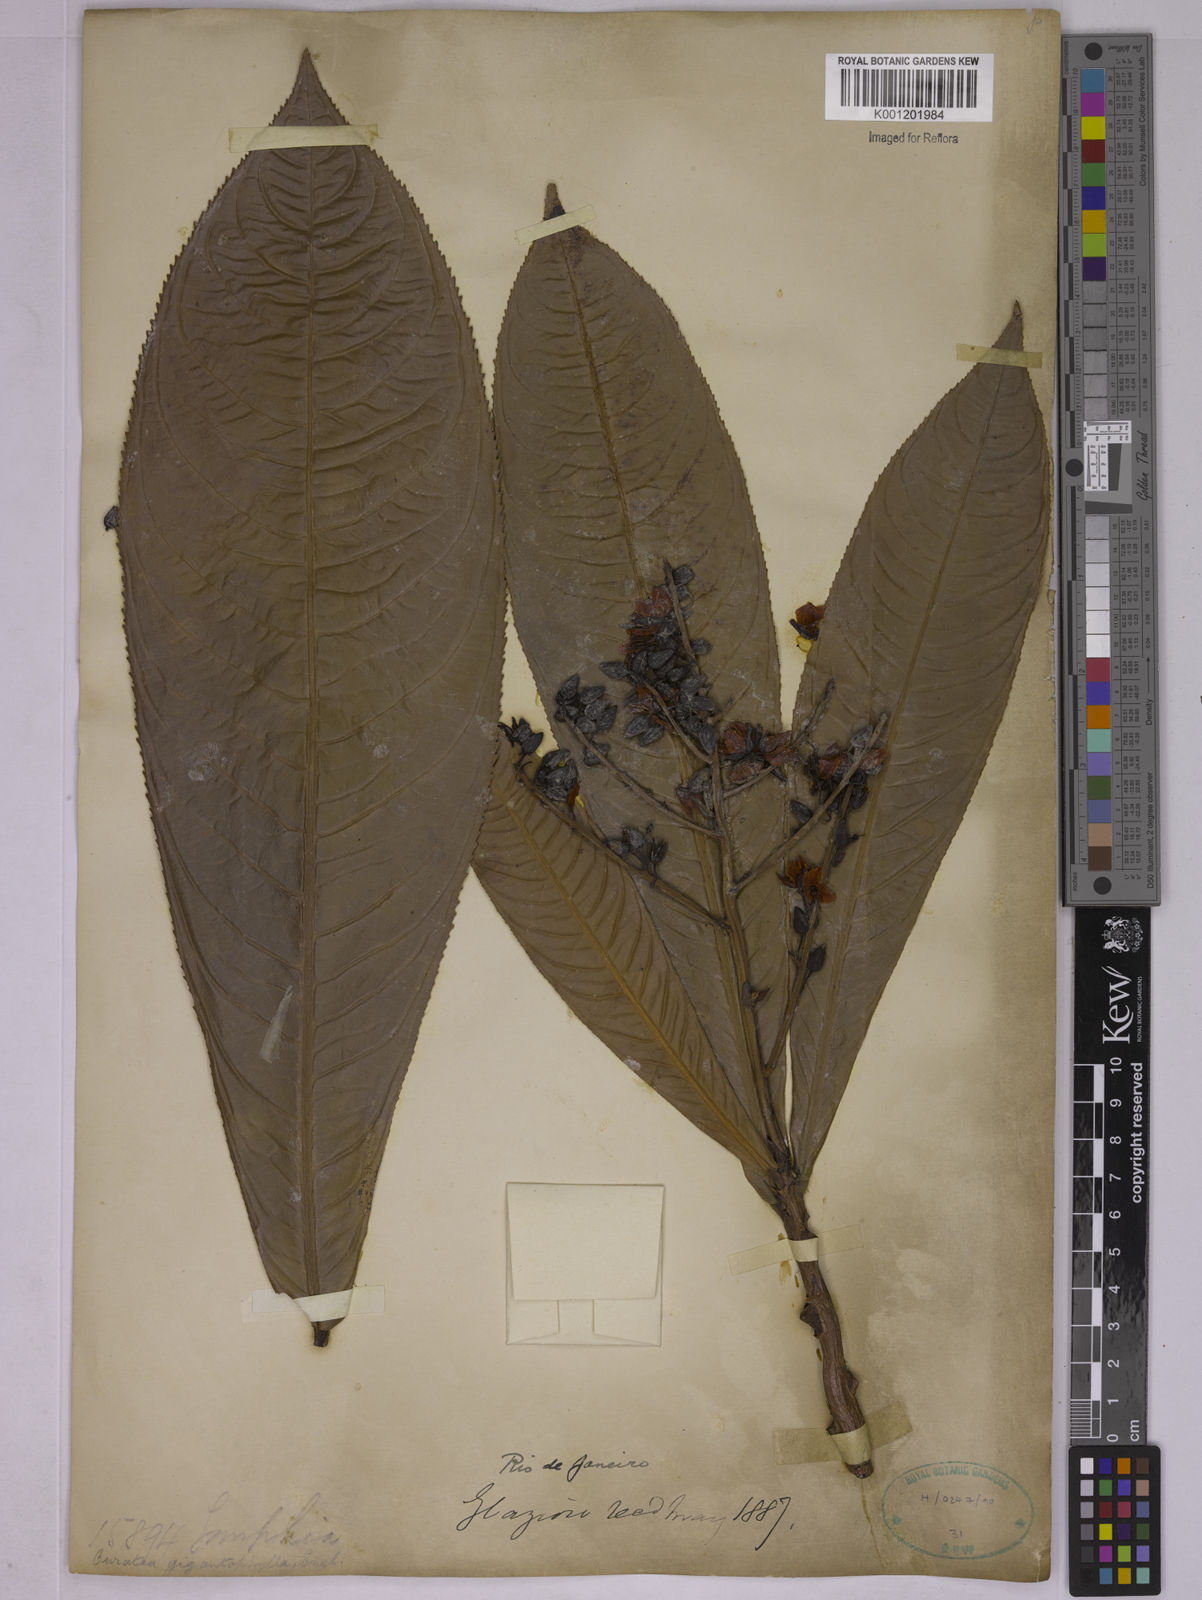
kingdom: Plantae
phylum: Tracheophyta
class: Magnoliopsida
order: Malpighiales
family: Ochnaceae
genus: Ouratea
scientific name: Ouratea gigantophylla
